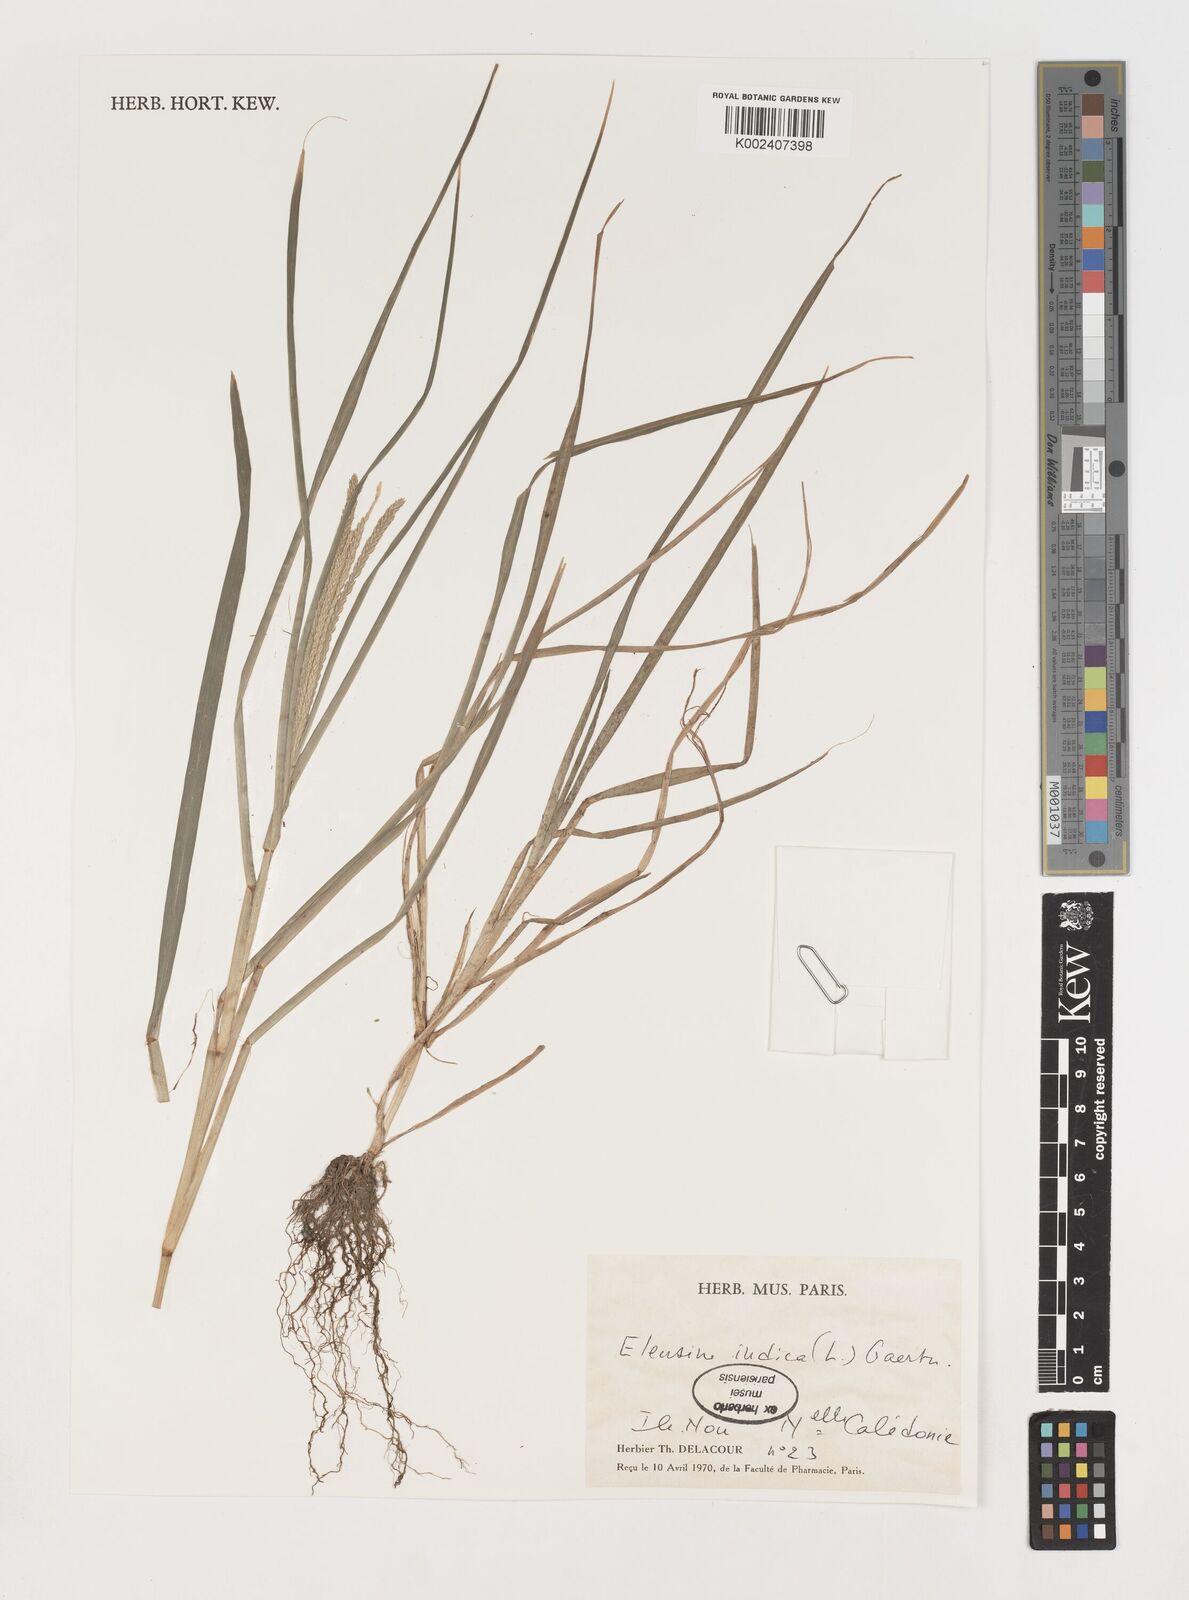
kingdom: Plantae
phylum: Tracheophyta
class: Liliopsida
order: Poales
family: Poaceae
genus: Eleusine
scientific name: Eleusine indica
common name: Yard-grass
